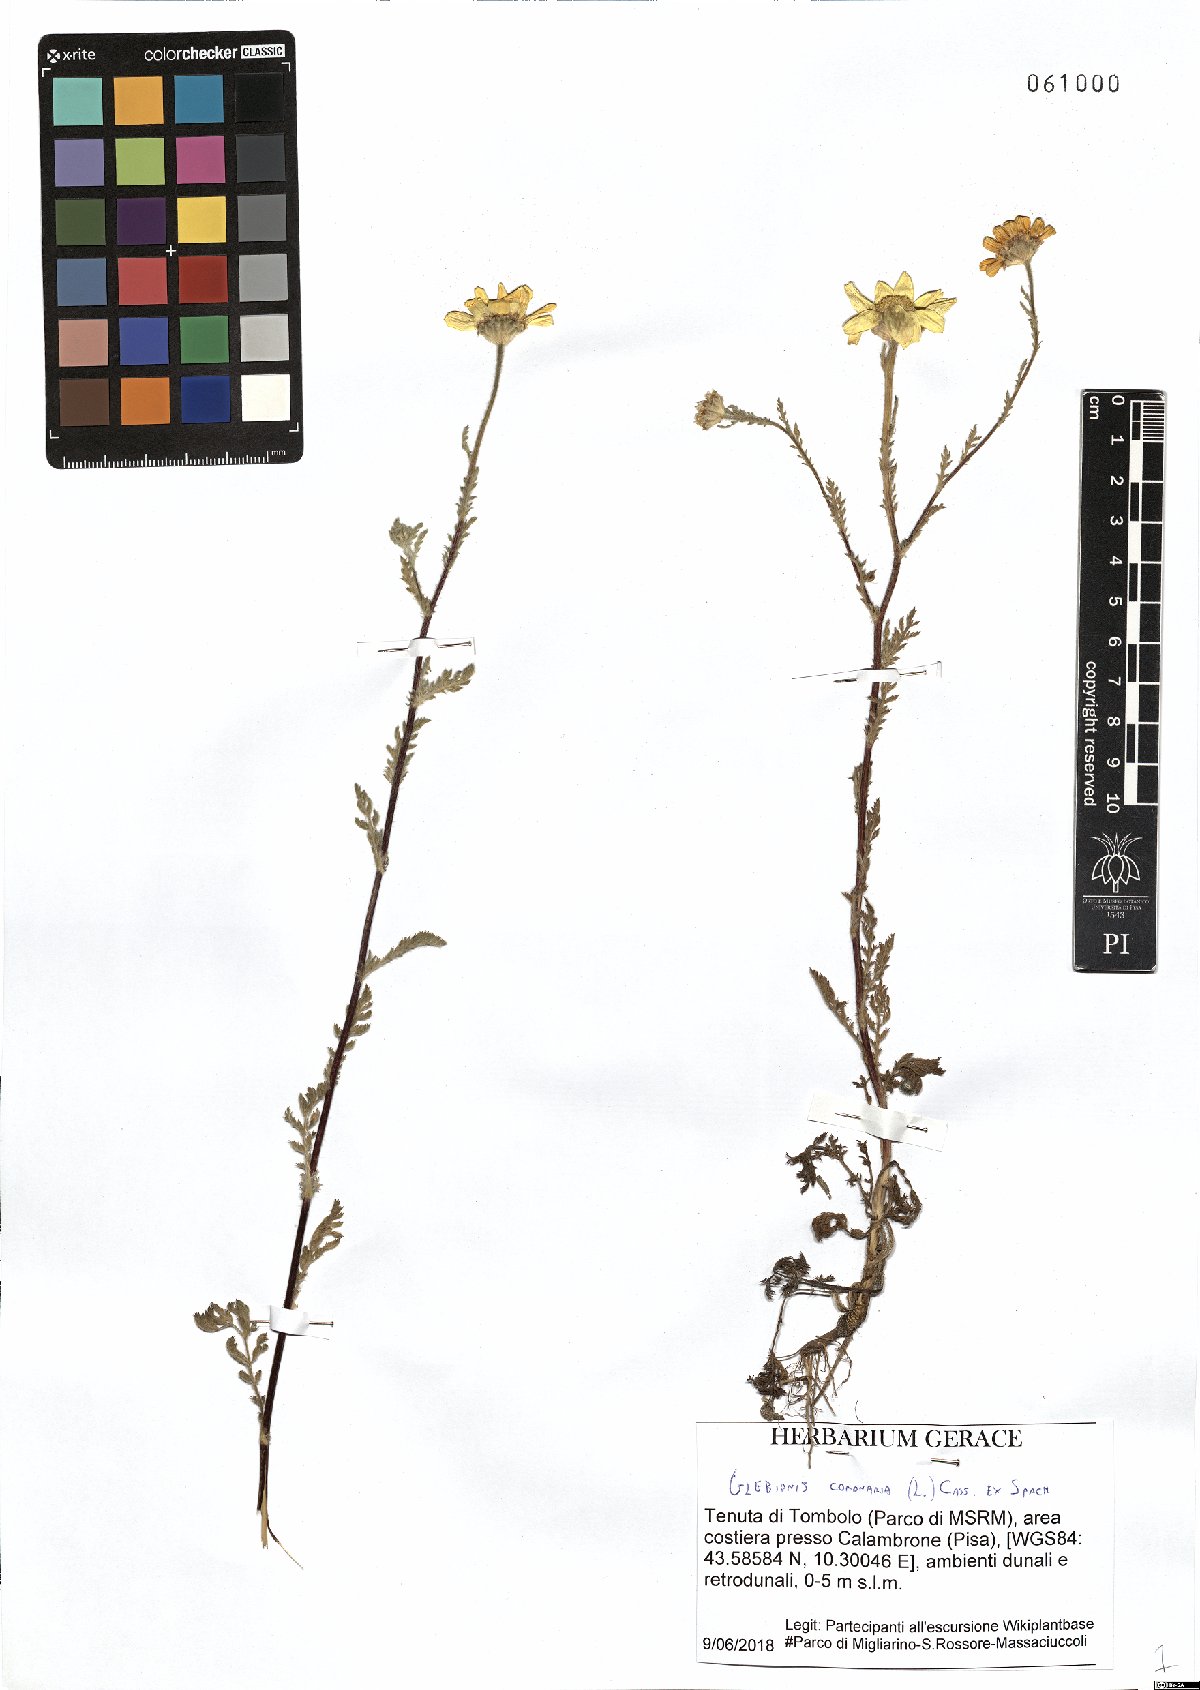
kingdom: Plantae
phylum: Tracheophyta
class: Magnoliopsida
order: Asterales
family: Asteraceae
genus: Glebionis
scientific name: Glebionis coronaria
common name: Crowndaisy
